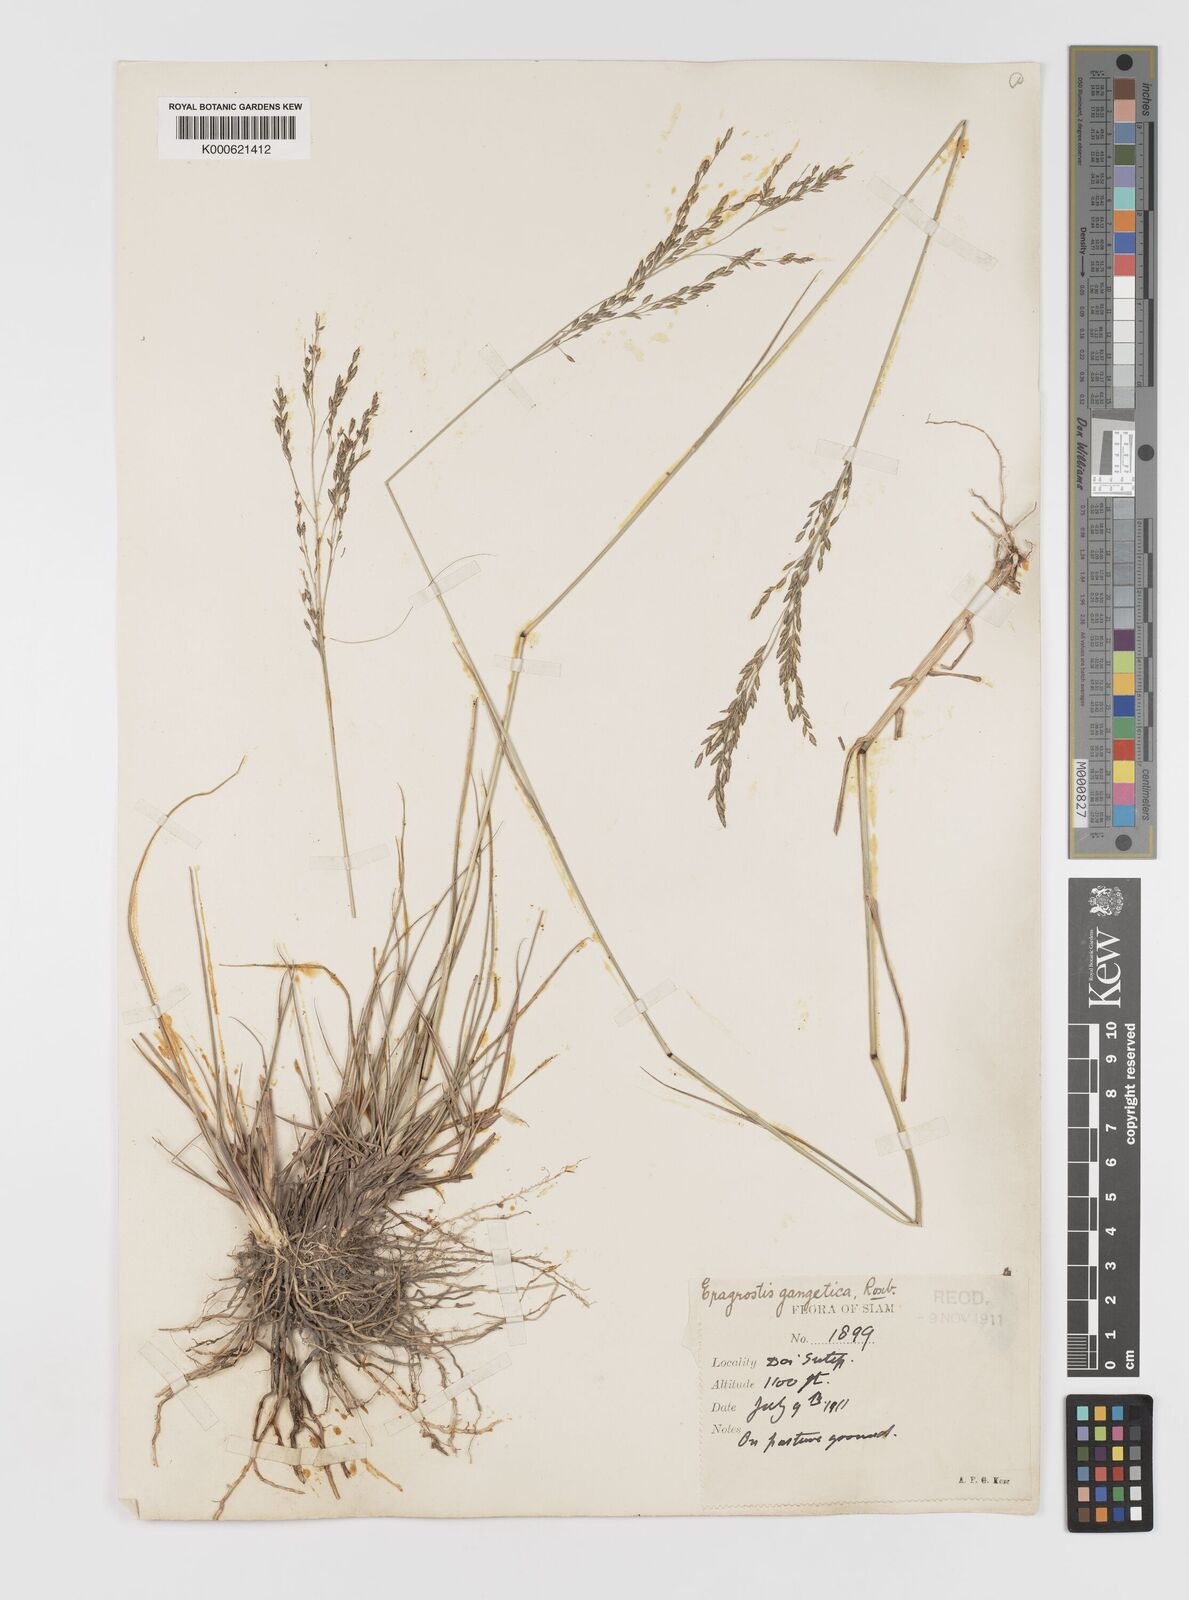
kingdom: Plantae
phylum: Tracheophyta
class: Liliopsida
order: Poales
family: Poaceae
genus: Eragrostis
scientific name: Eragrostis
